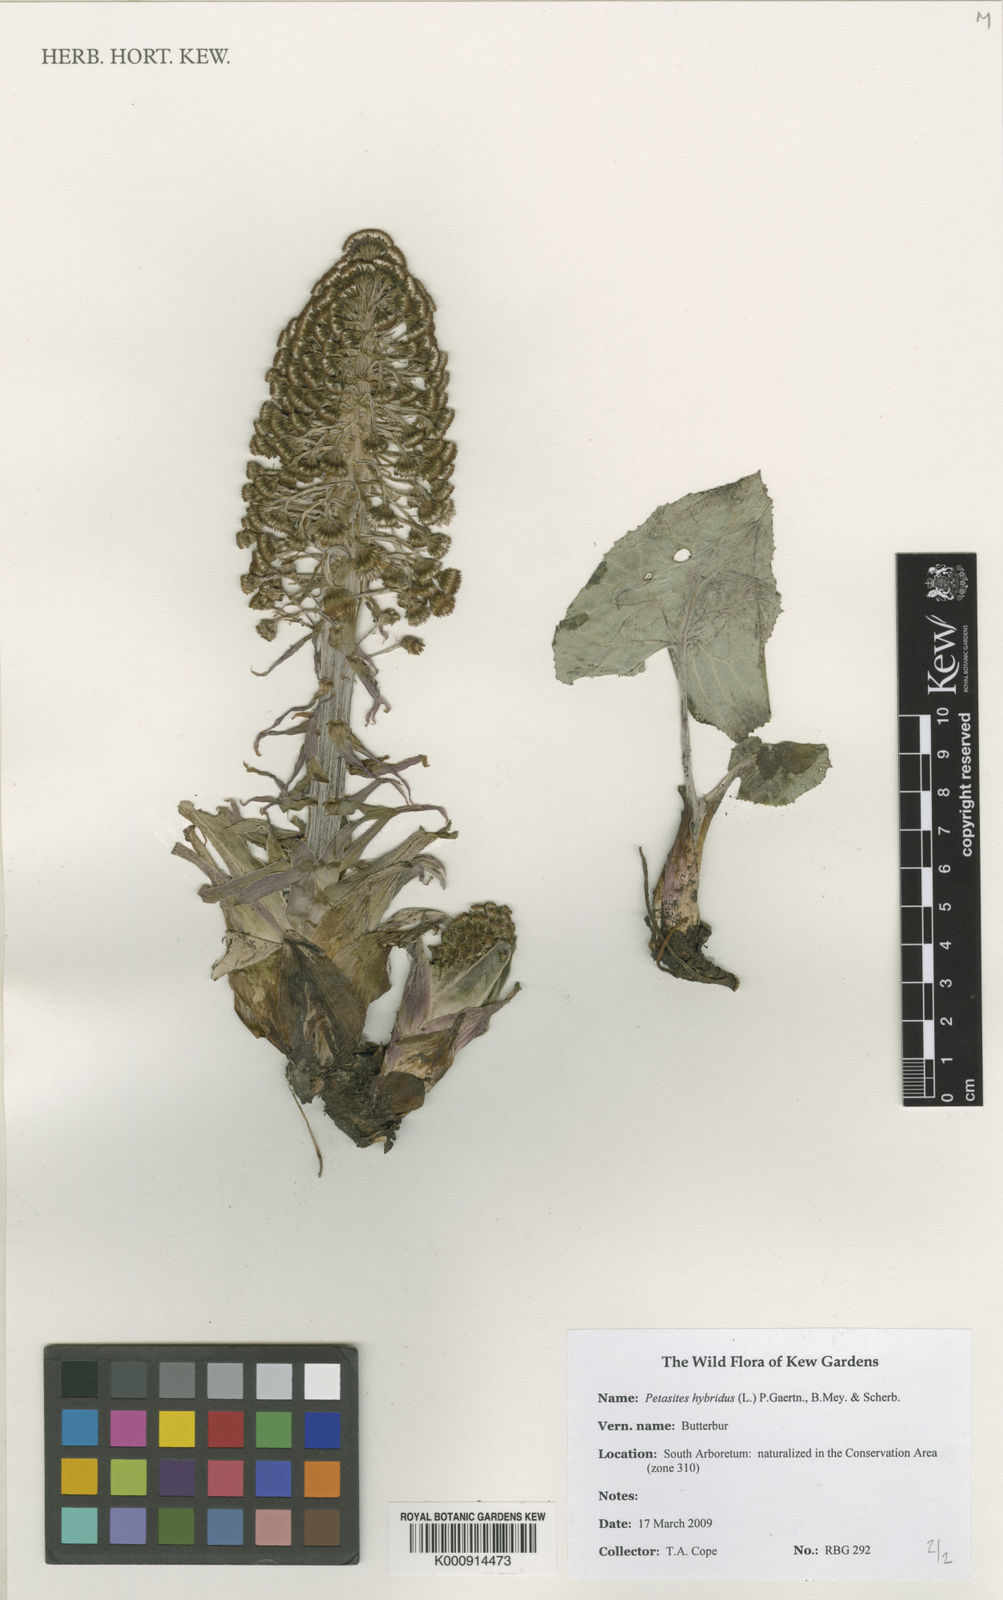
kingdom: Plantae
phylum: Tracheophyta
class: Magnoliopsida
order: Asterales
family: Asteraceae
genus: Petasites
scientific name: Petasites
